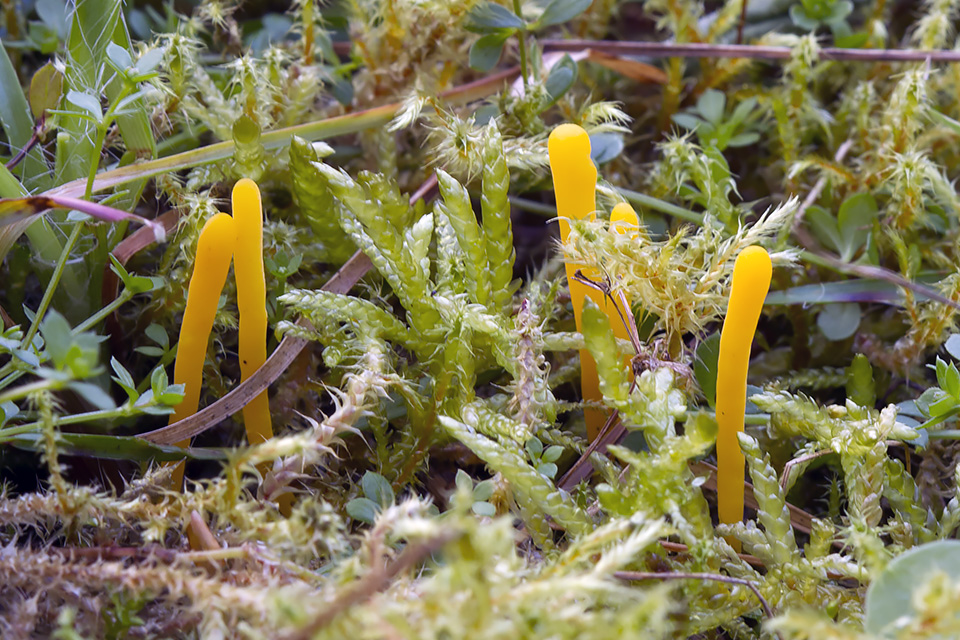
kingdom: Fungi
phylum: Basidiomycota
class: Agaricomycetes
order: Agaricales
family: Clavariaceae
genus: Clavulinopsis
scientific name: Clavulinopsis helvola
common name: orangegul køllesvamp
